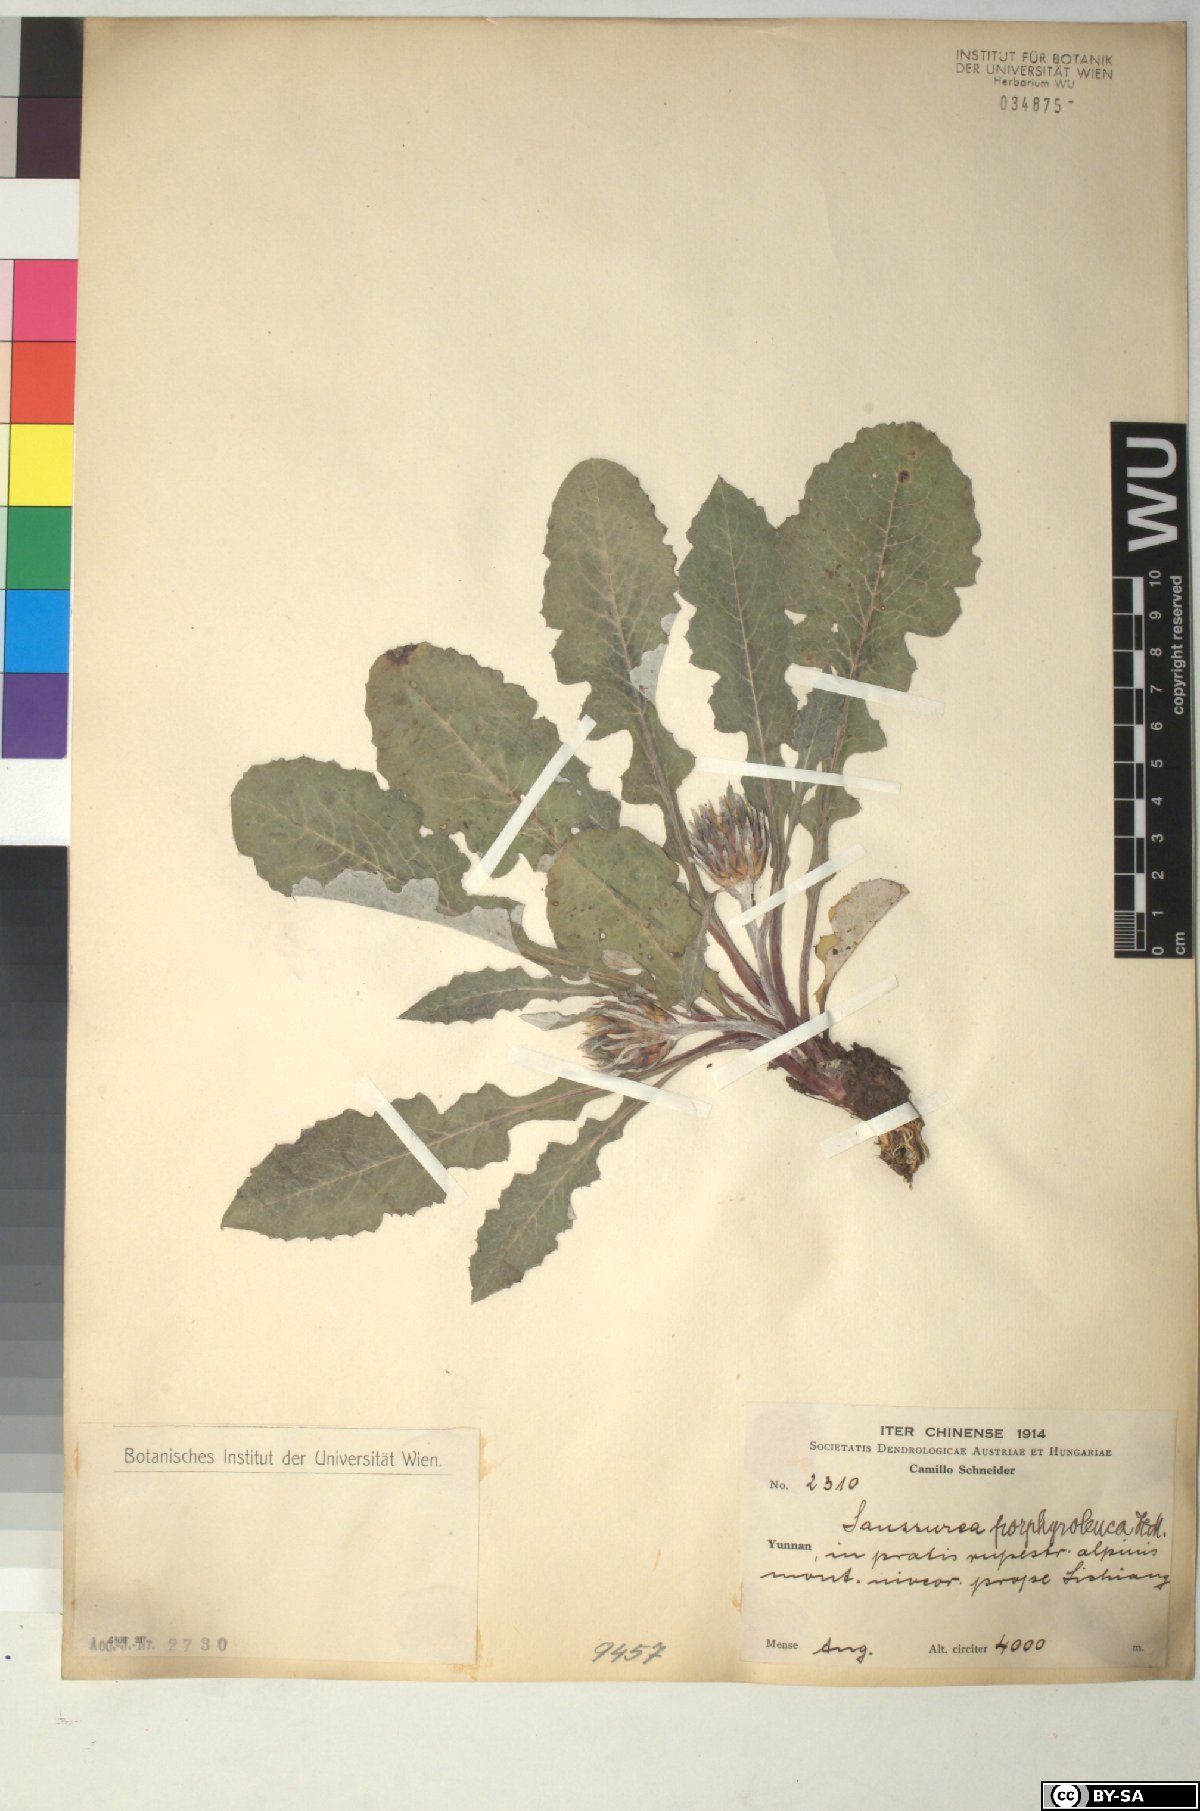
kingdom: Plantae
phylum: Tracheophyta
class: Magnoliopsida
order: Asterales
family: Asteraceae
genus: Saussurea
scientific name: Saussurea porphyroleuca
